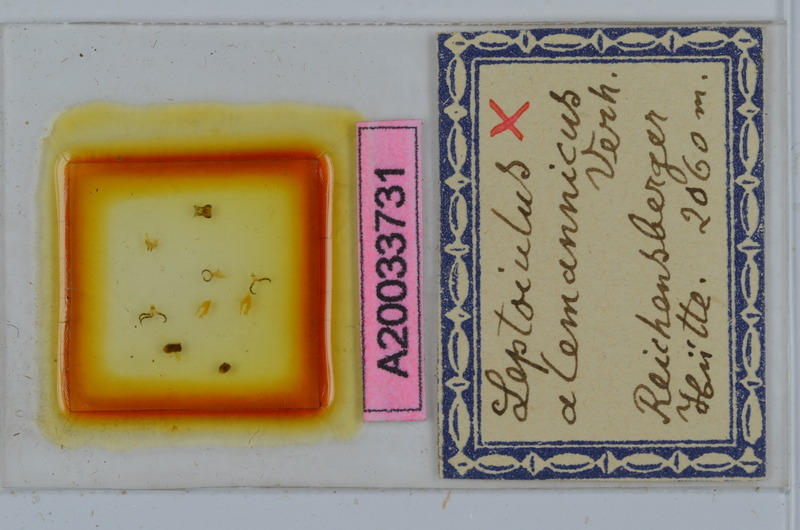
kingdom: Animalia
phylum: Arthropoda
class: Diplopoda
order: Julida
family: Julidae
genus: Leptoiulus
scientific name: Leptoiulus alemannicus
